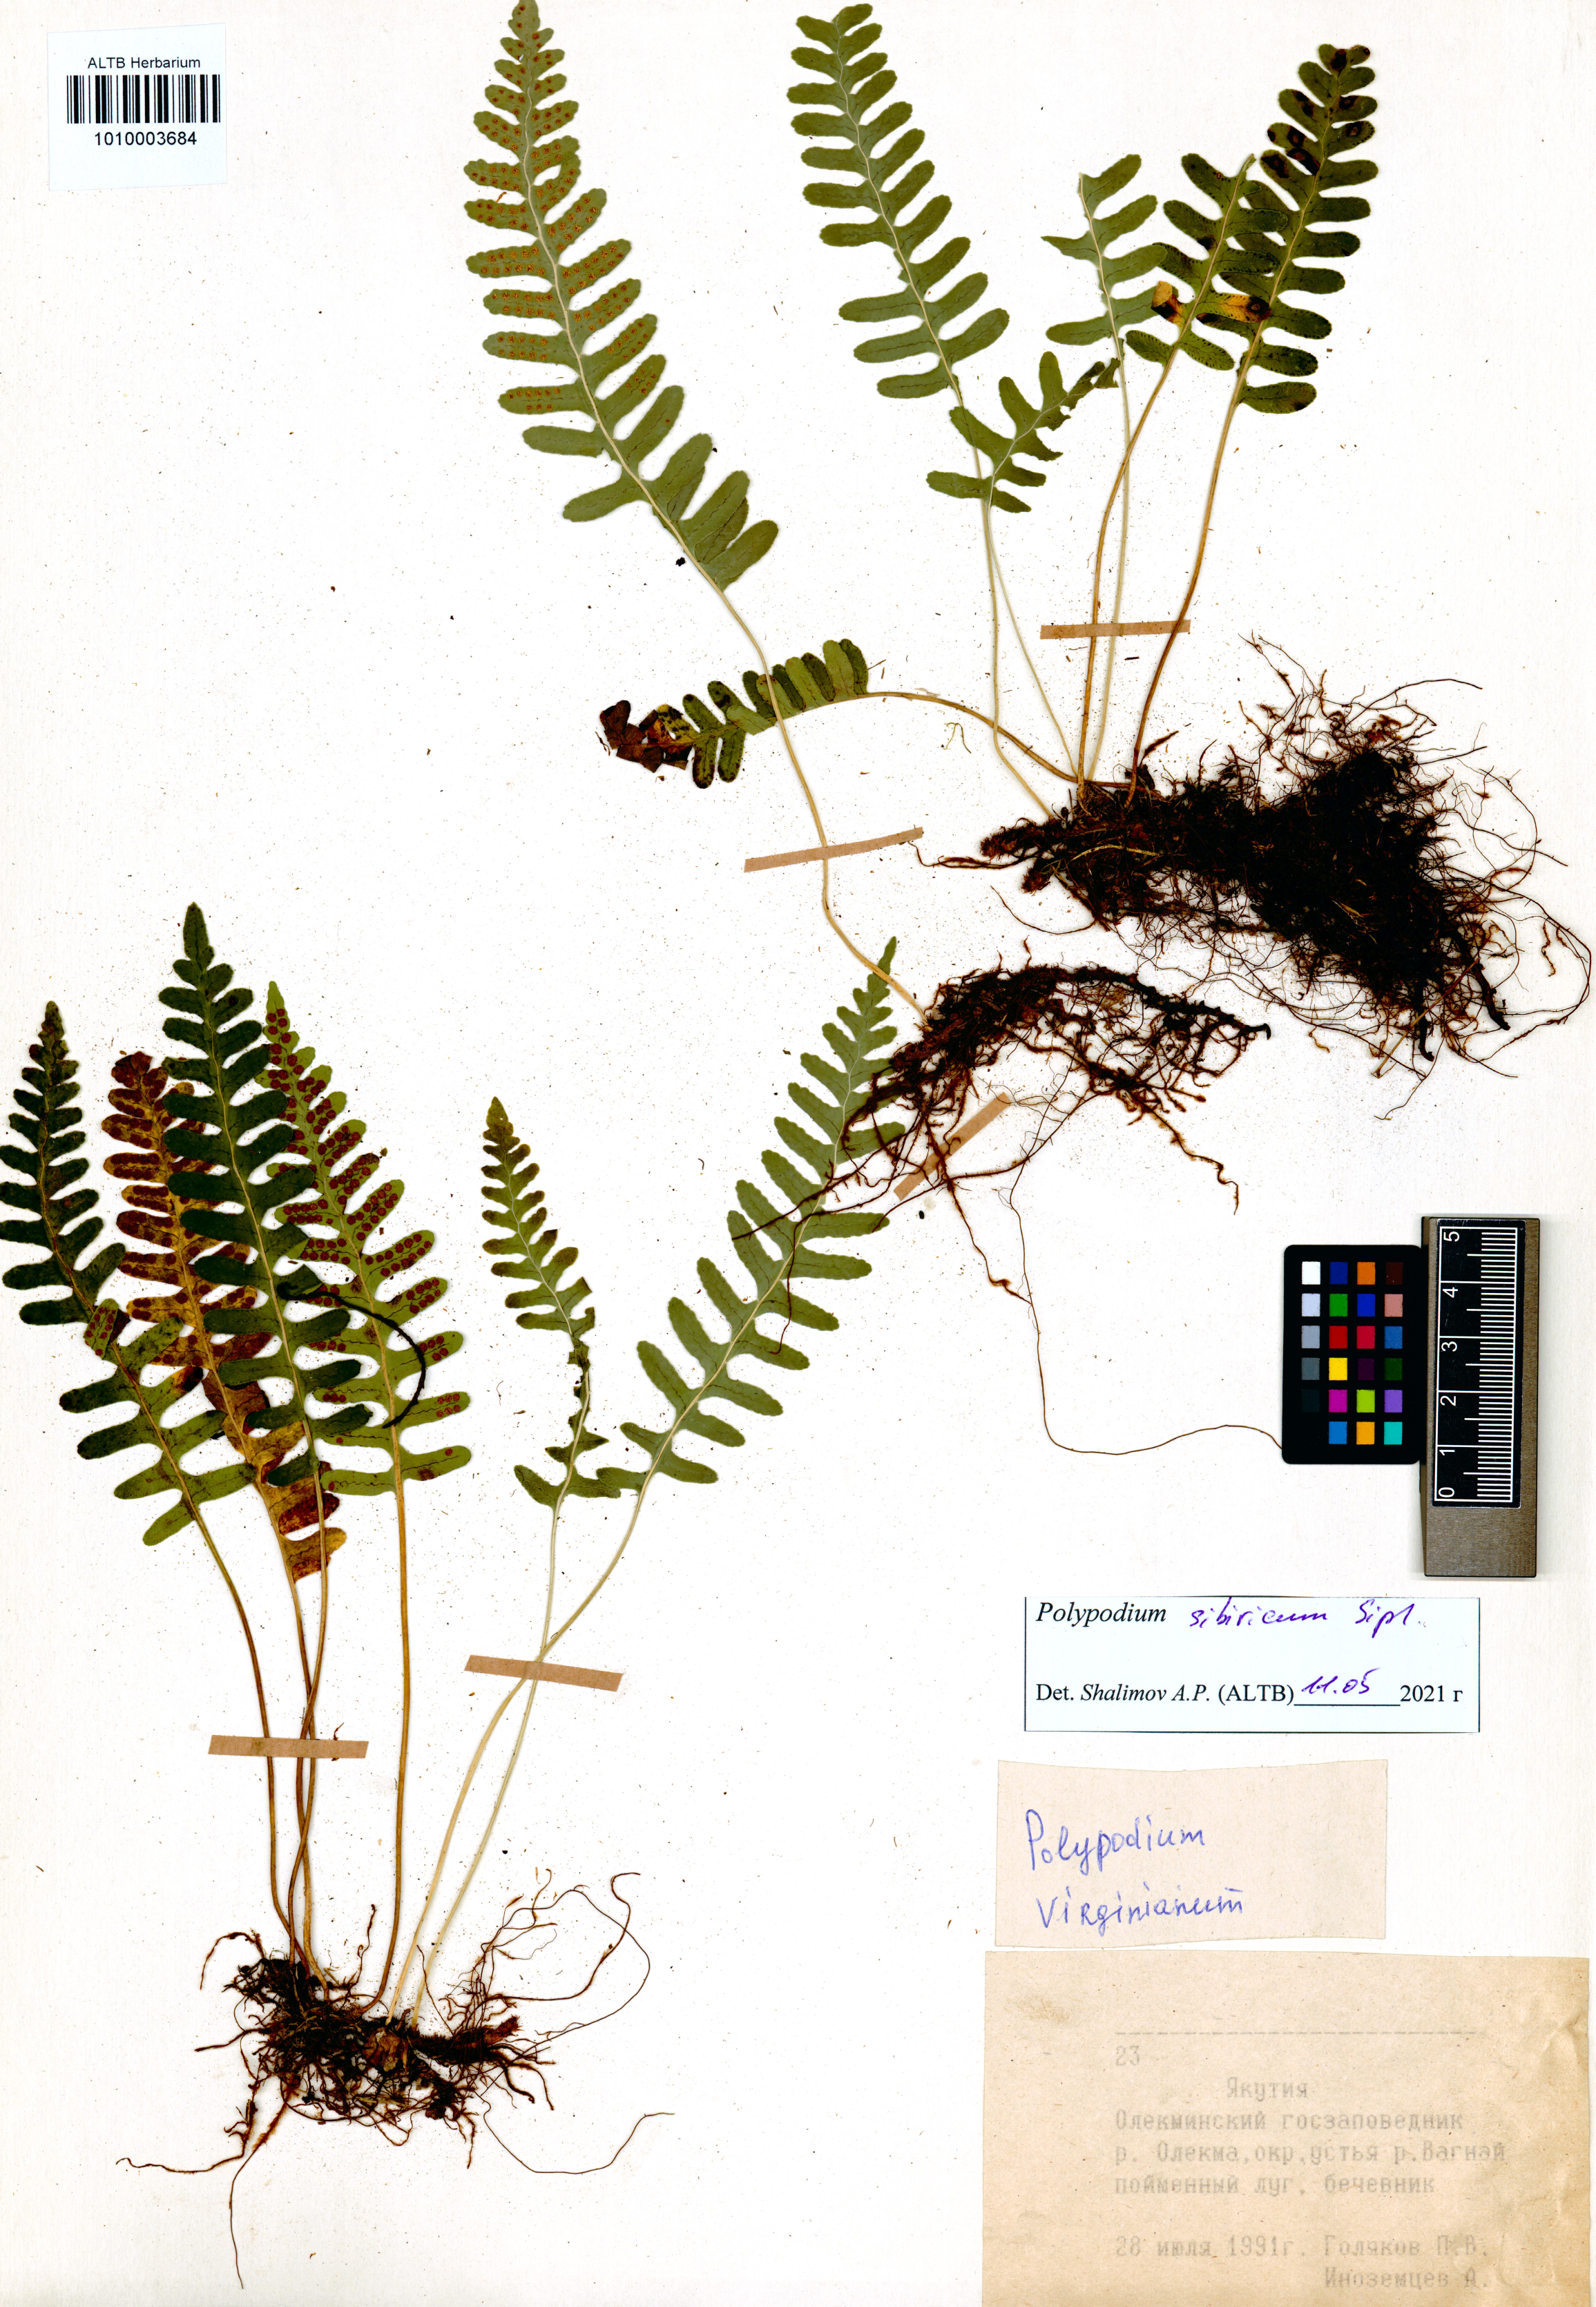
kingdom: Plantae
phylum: Tracheophyta
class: Polypodiopsida
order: Polypodiales
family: Polypodiaceae
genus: Polypodium
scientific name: Polypodium sibiricum
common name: Siberian polypody
